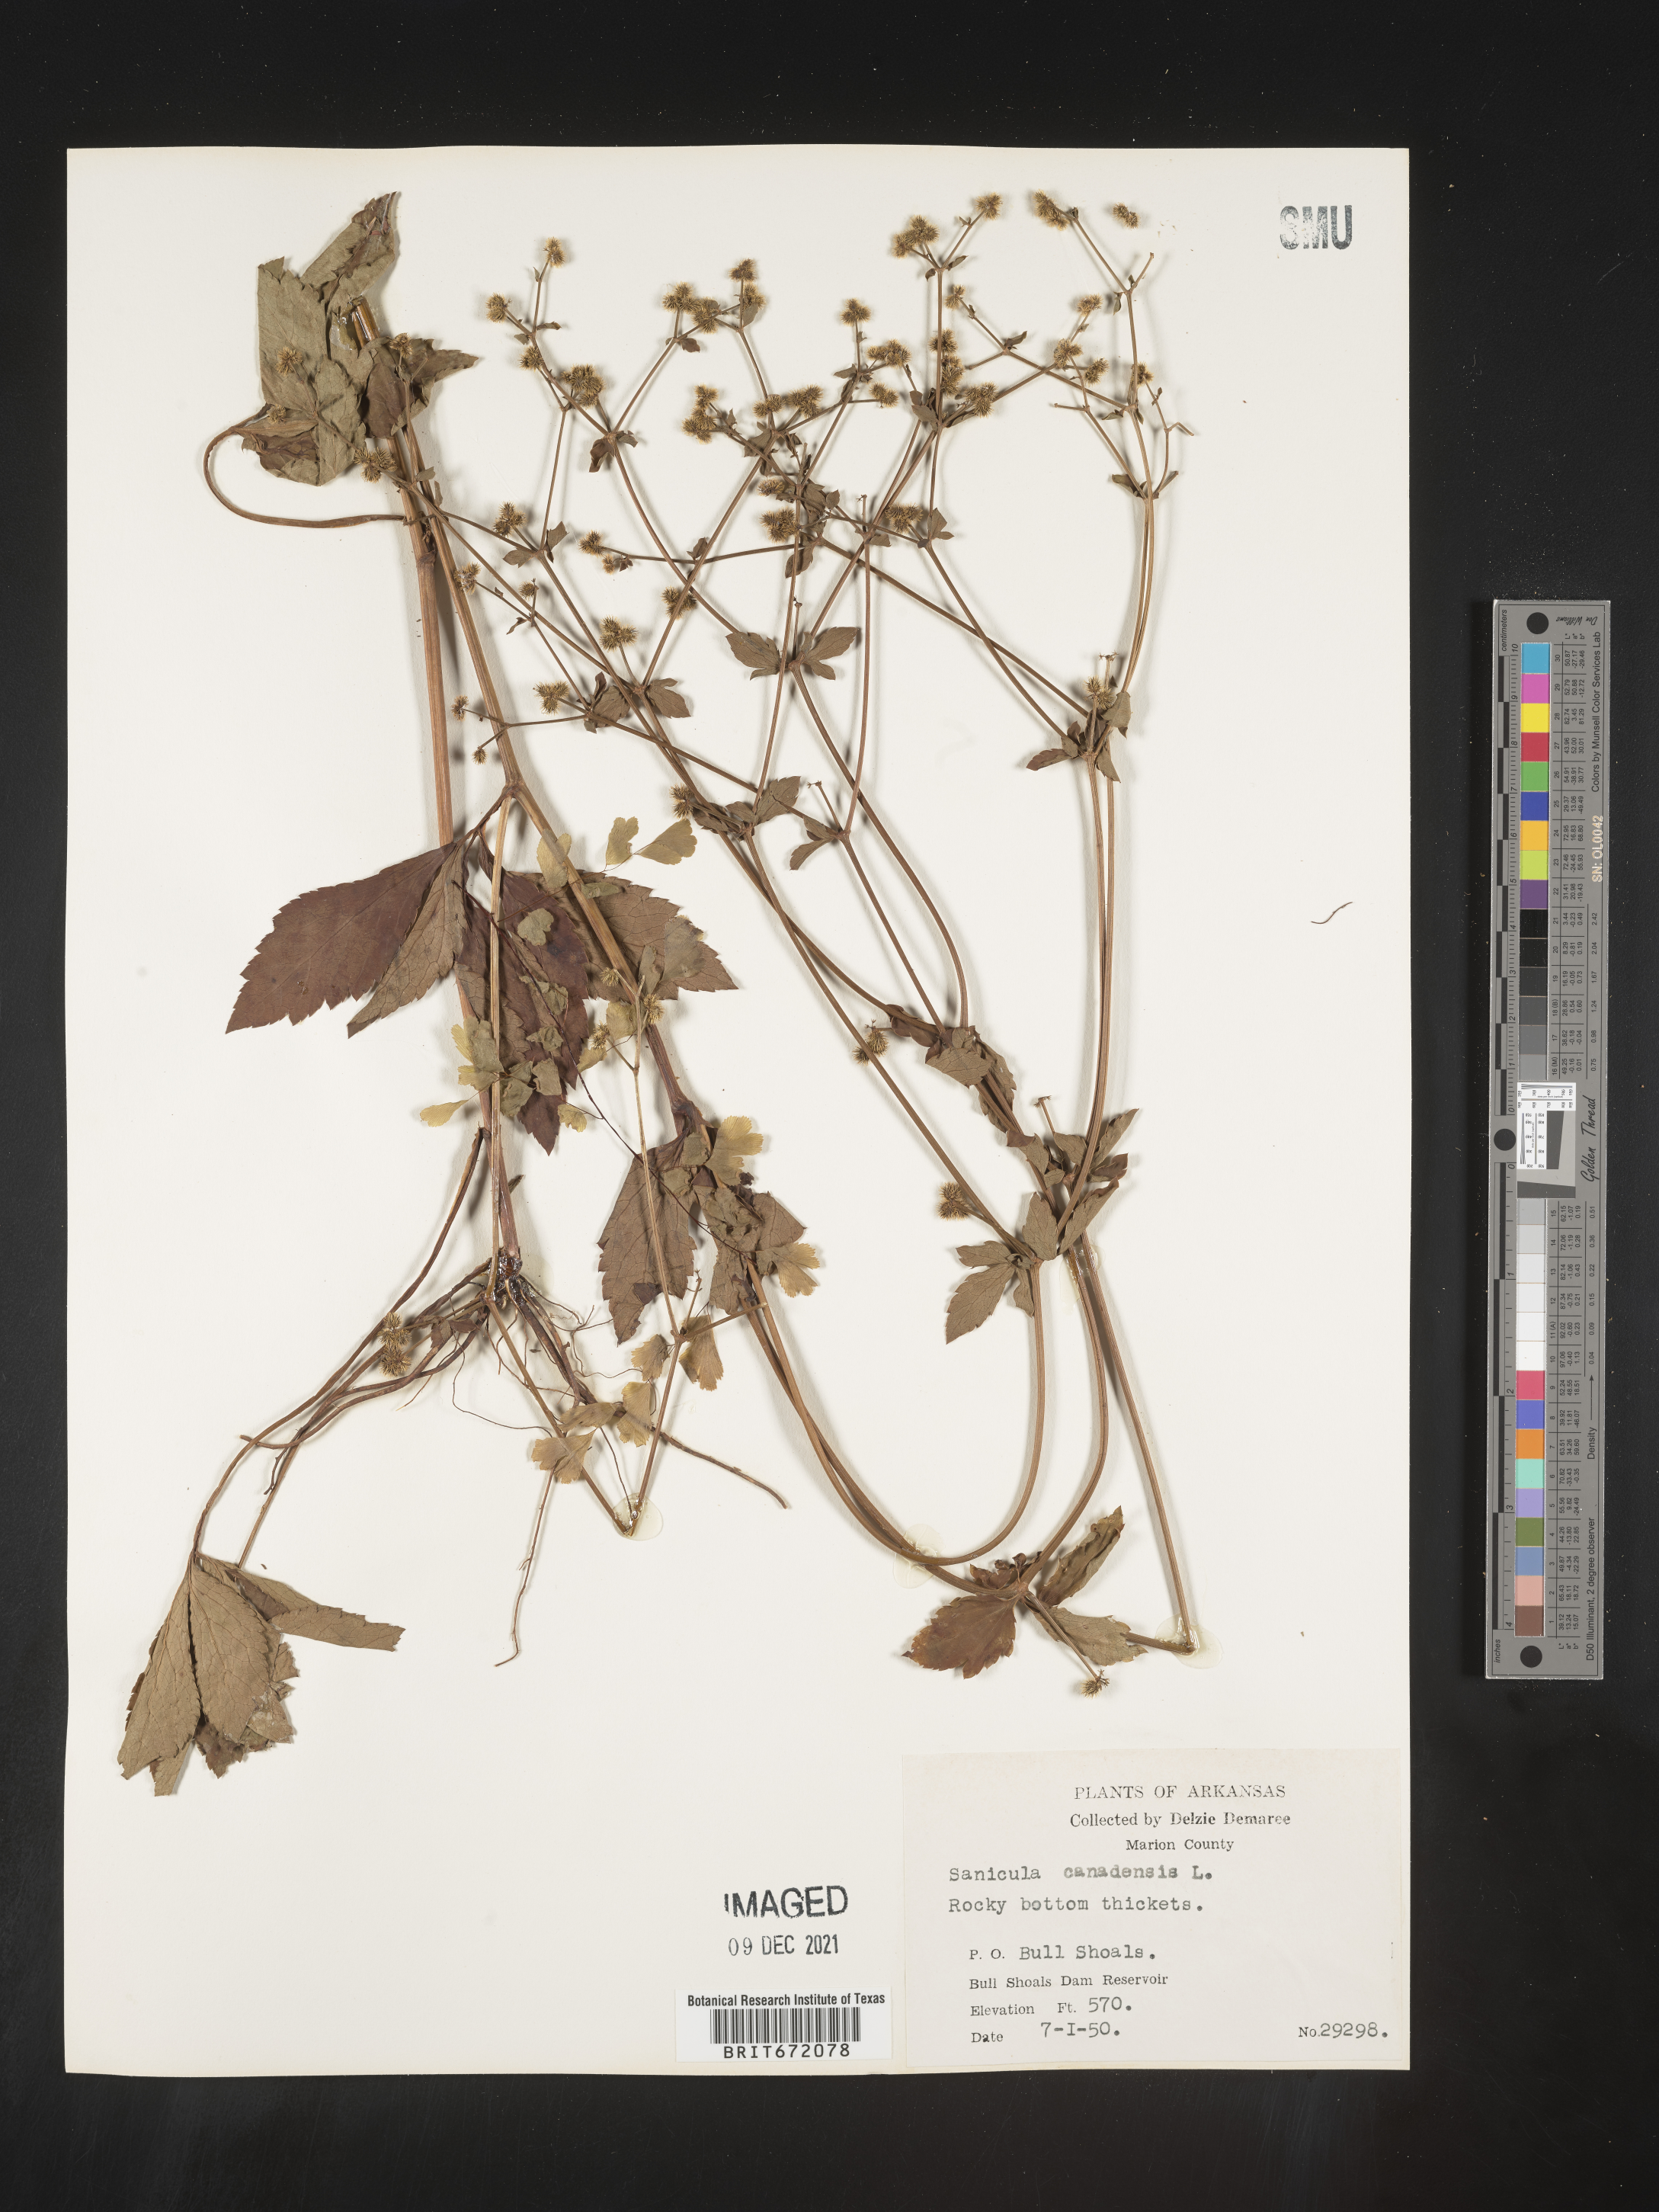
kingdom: Plantae
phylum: Tracheophyta
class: Magnoliopsida
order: Apiales
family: Apiaceae
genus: Sanicula
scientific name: Sanicula canadensis
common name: Canada sanicle
